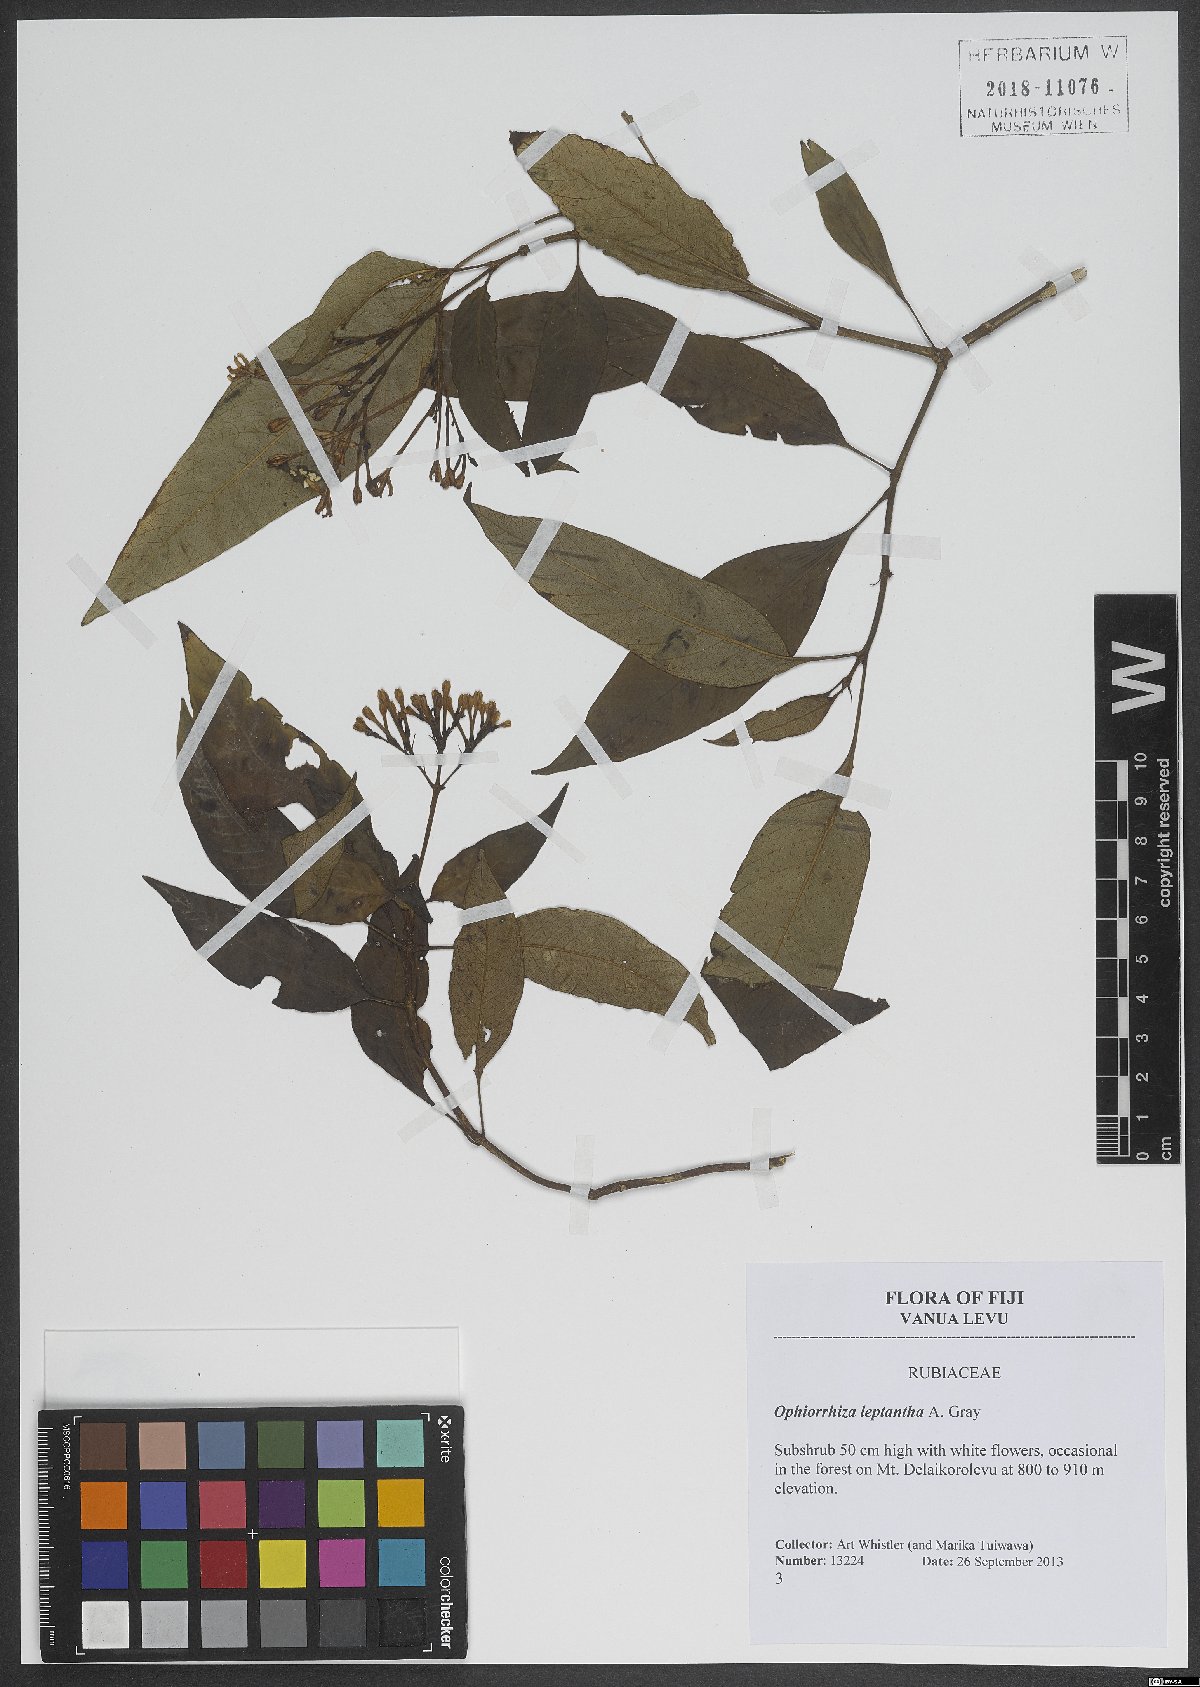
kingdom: Plantae
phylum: Tracheophyta
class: Magnoliopsida
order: Gentianales
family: Rubiaceae
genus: Ophiorrhiza
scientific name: Ophiorrhiza leptantha
